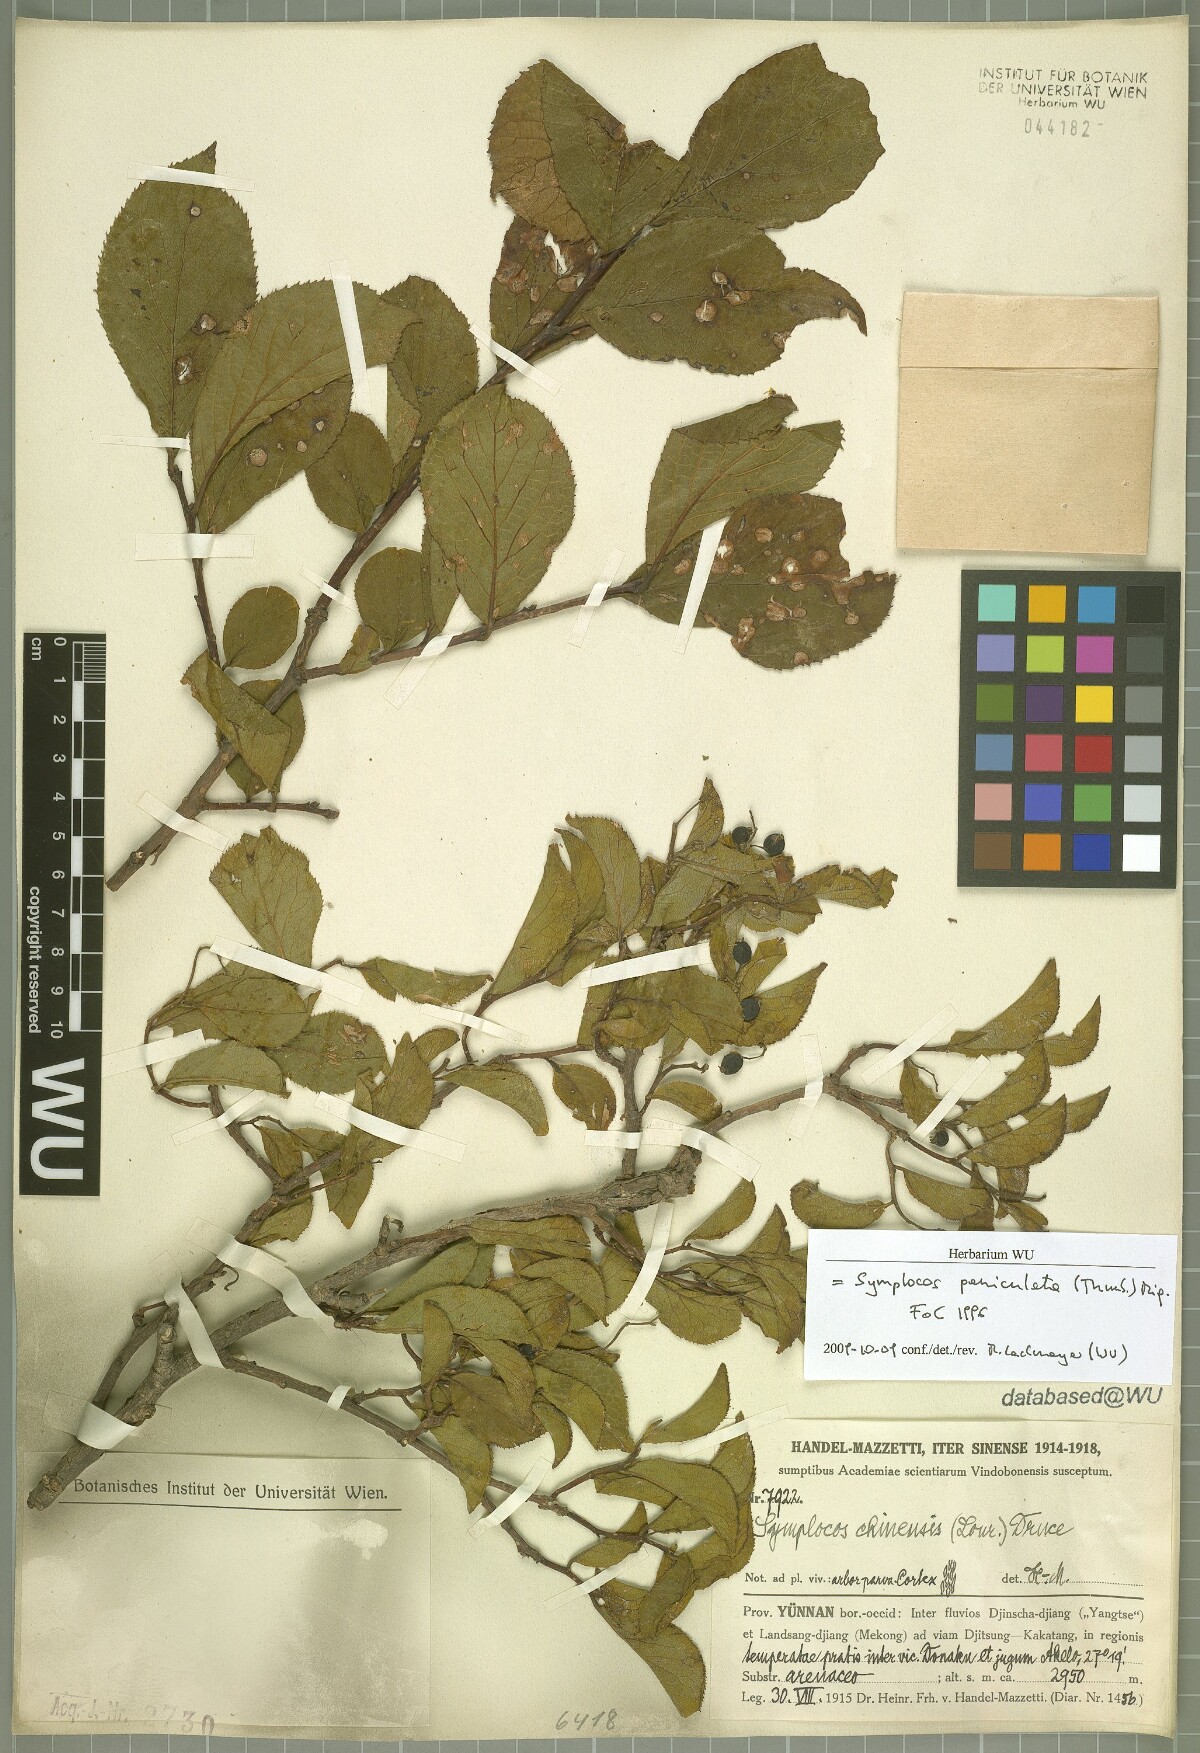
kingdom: Plantae
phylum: Tracheophyta
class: Magnoliopsida
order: Ericales
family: Symplocaceae
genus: Symplocos
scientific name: Symplocos paniculata
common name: Sapphire-berry
